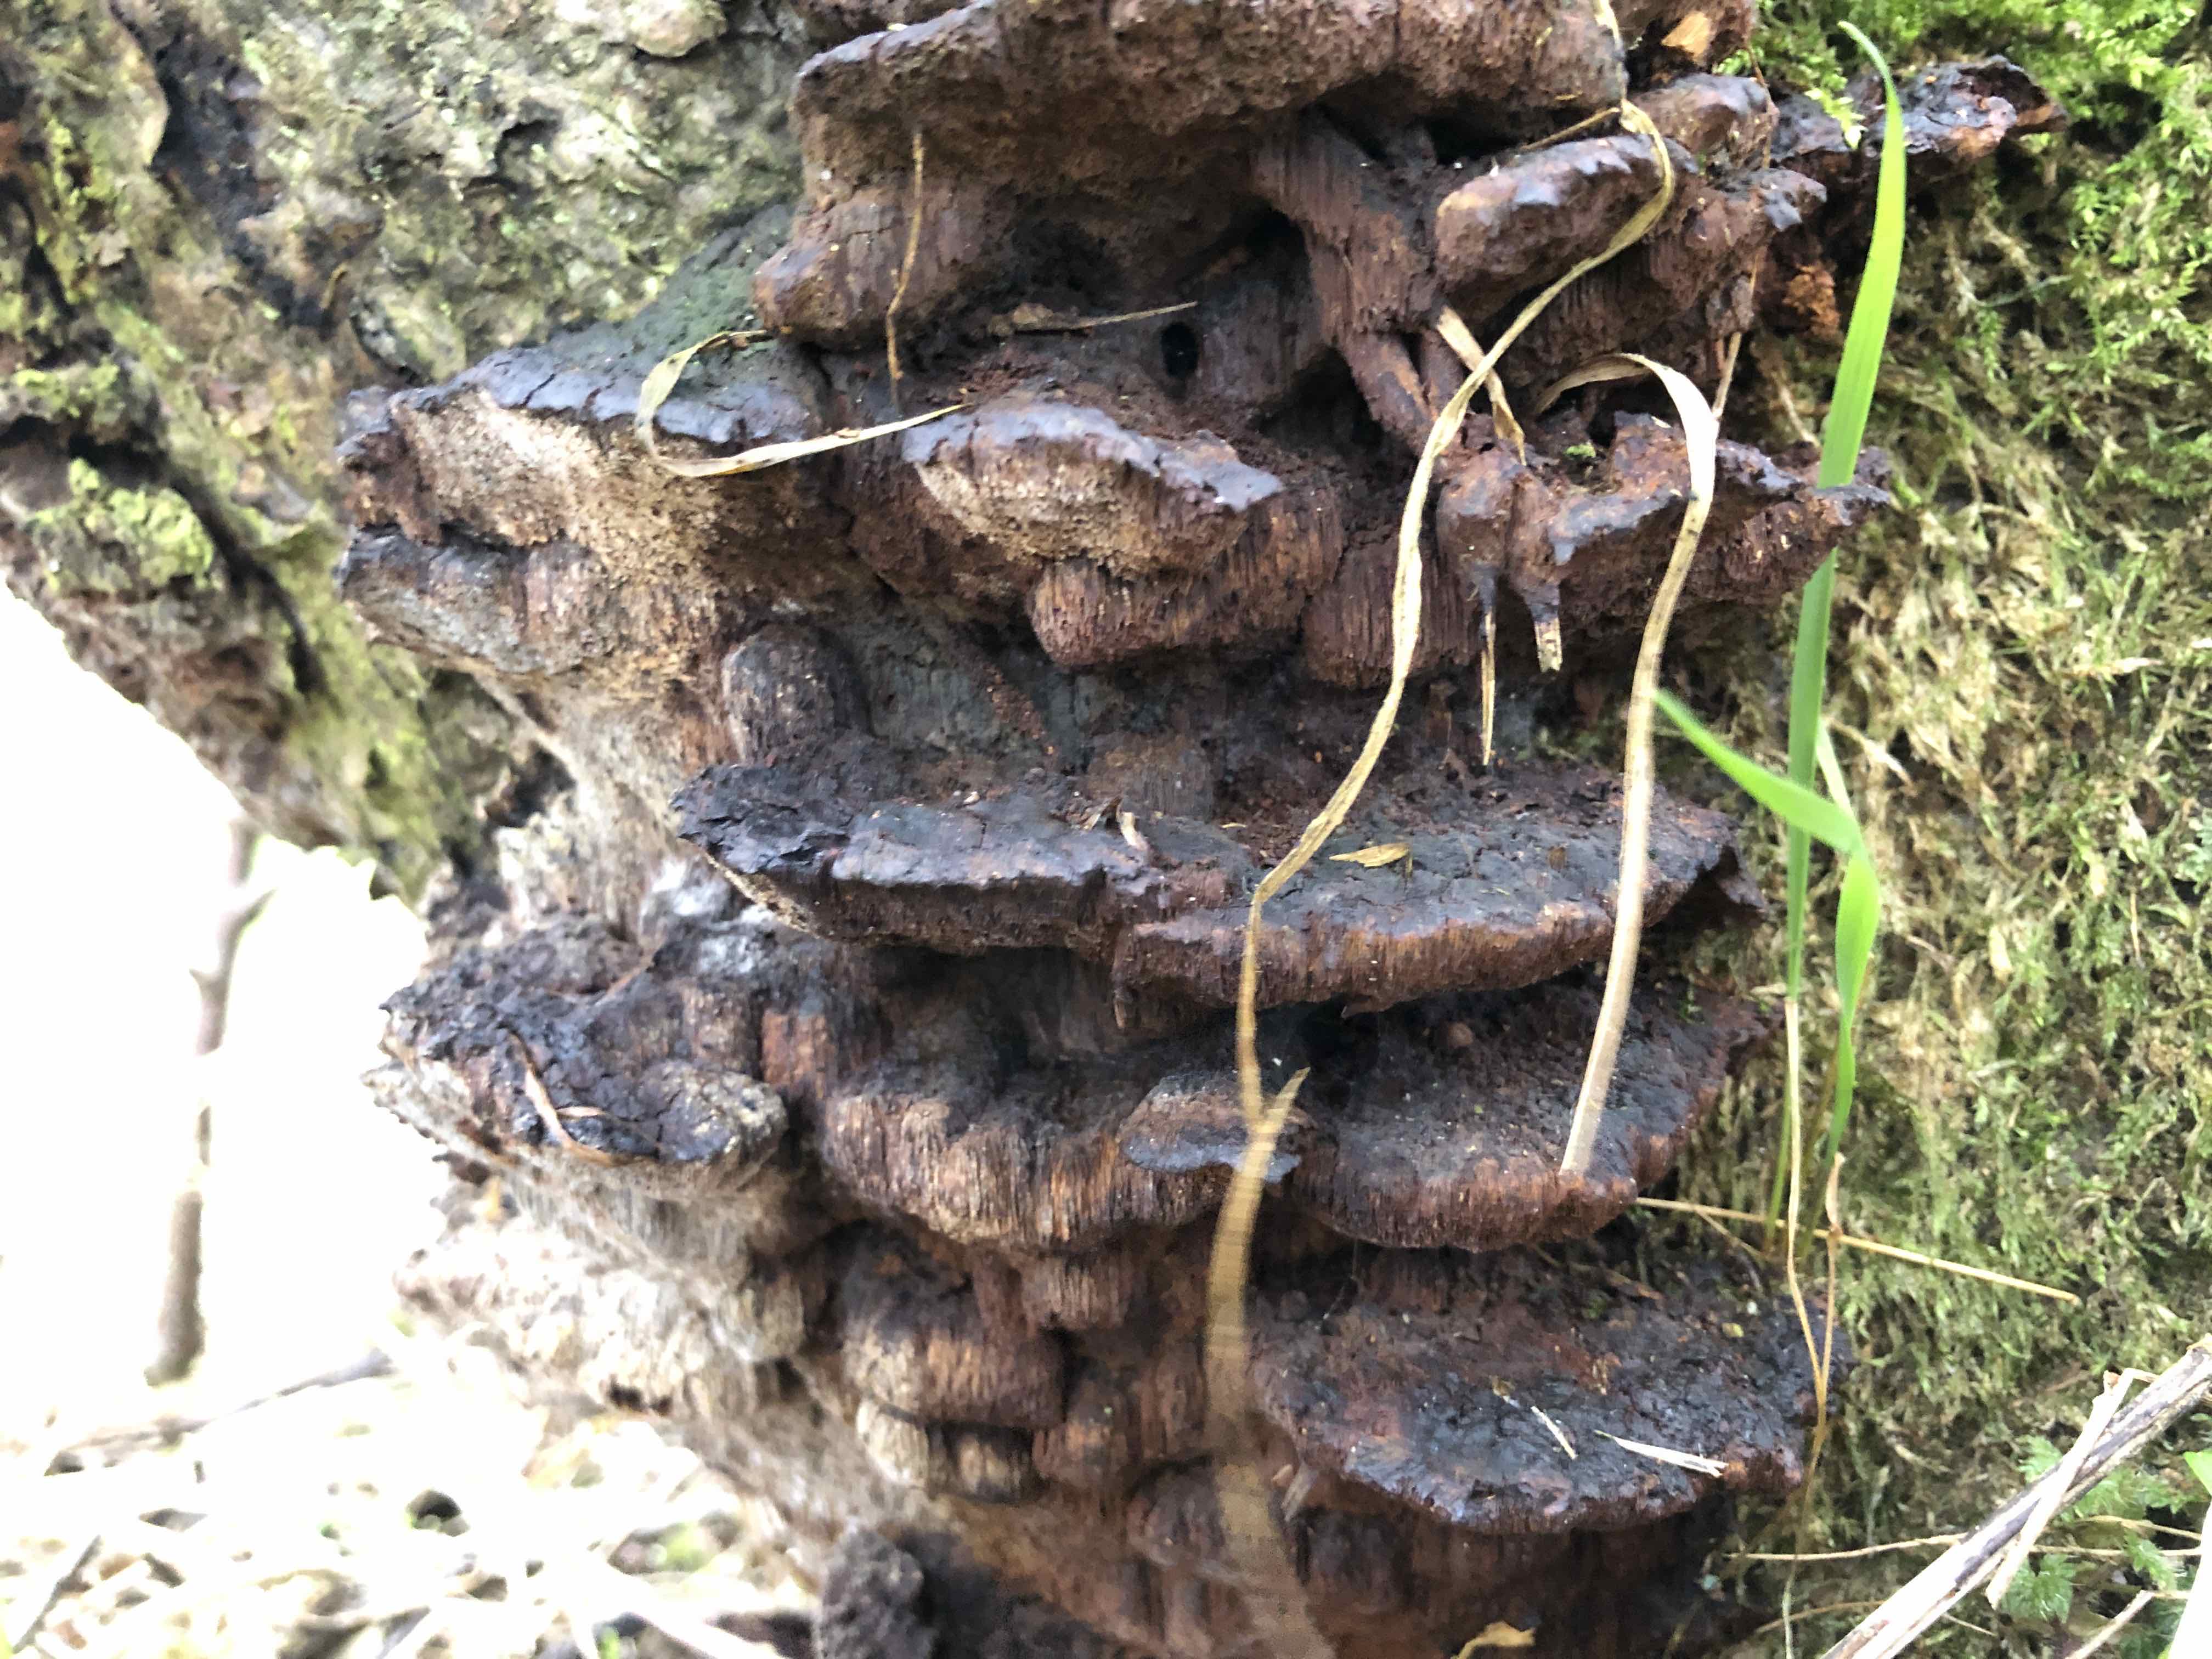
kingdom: Fungi
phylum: Basidiomycota
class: Agaricomycetes
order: Hymenochaetales
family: Hymenochaetaceae
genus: Xanthoporia
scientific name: Xanthoporia radiata
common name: elle-spejlporesvamp
